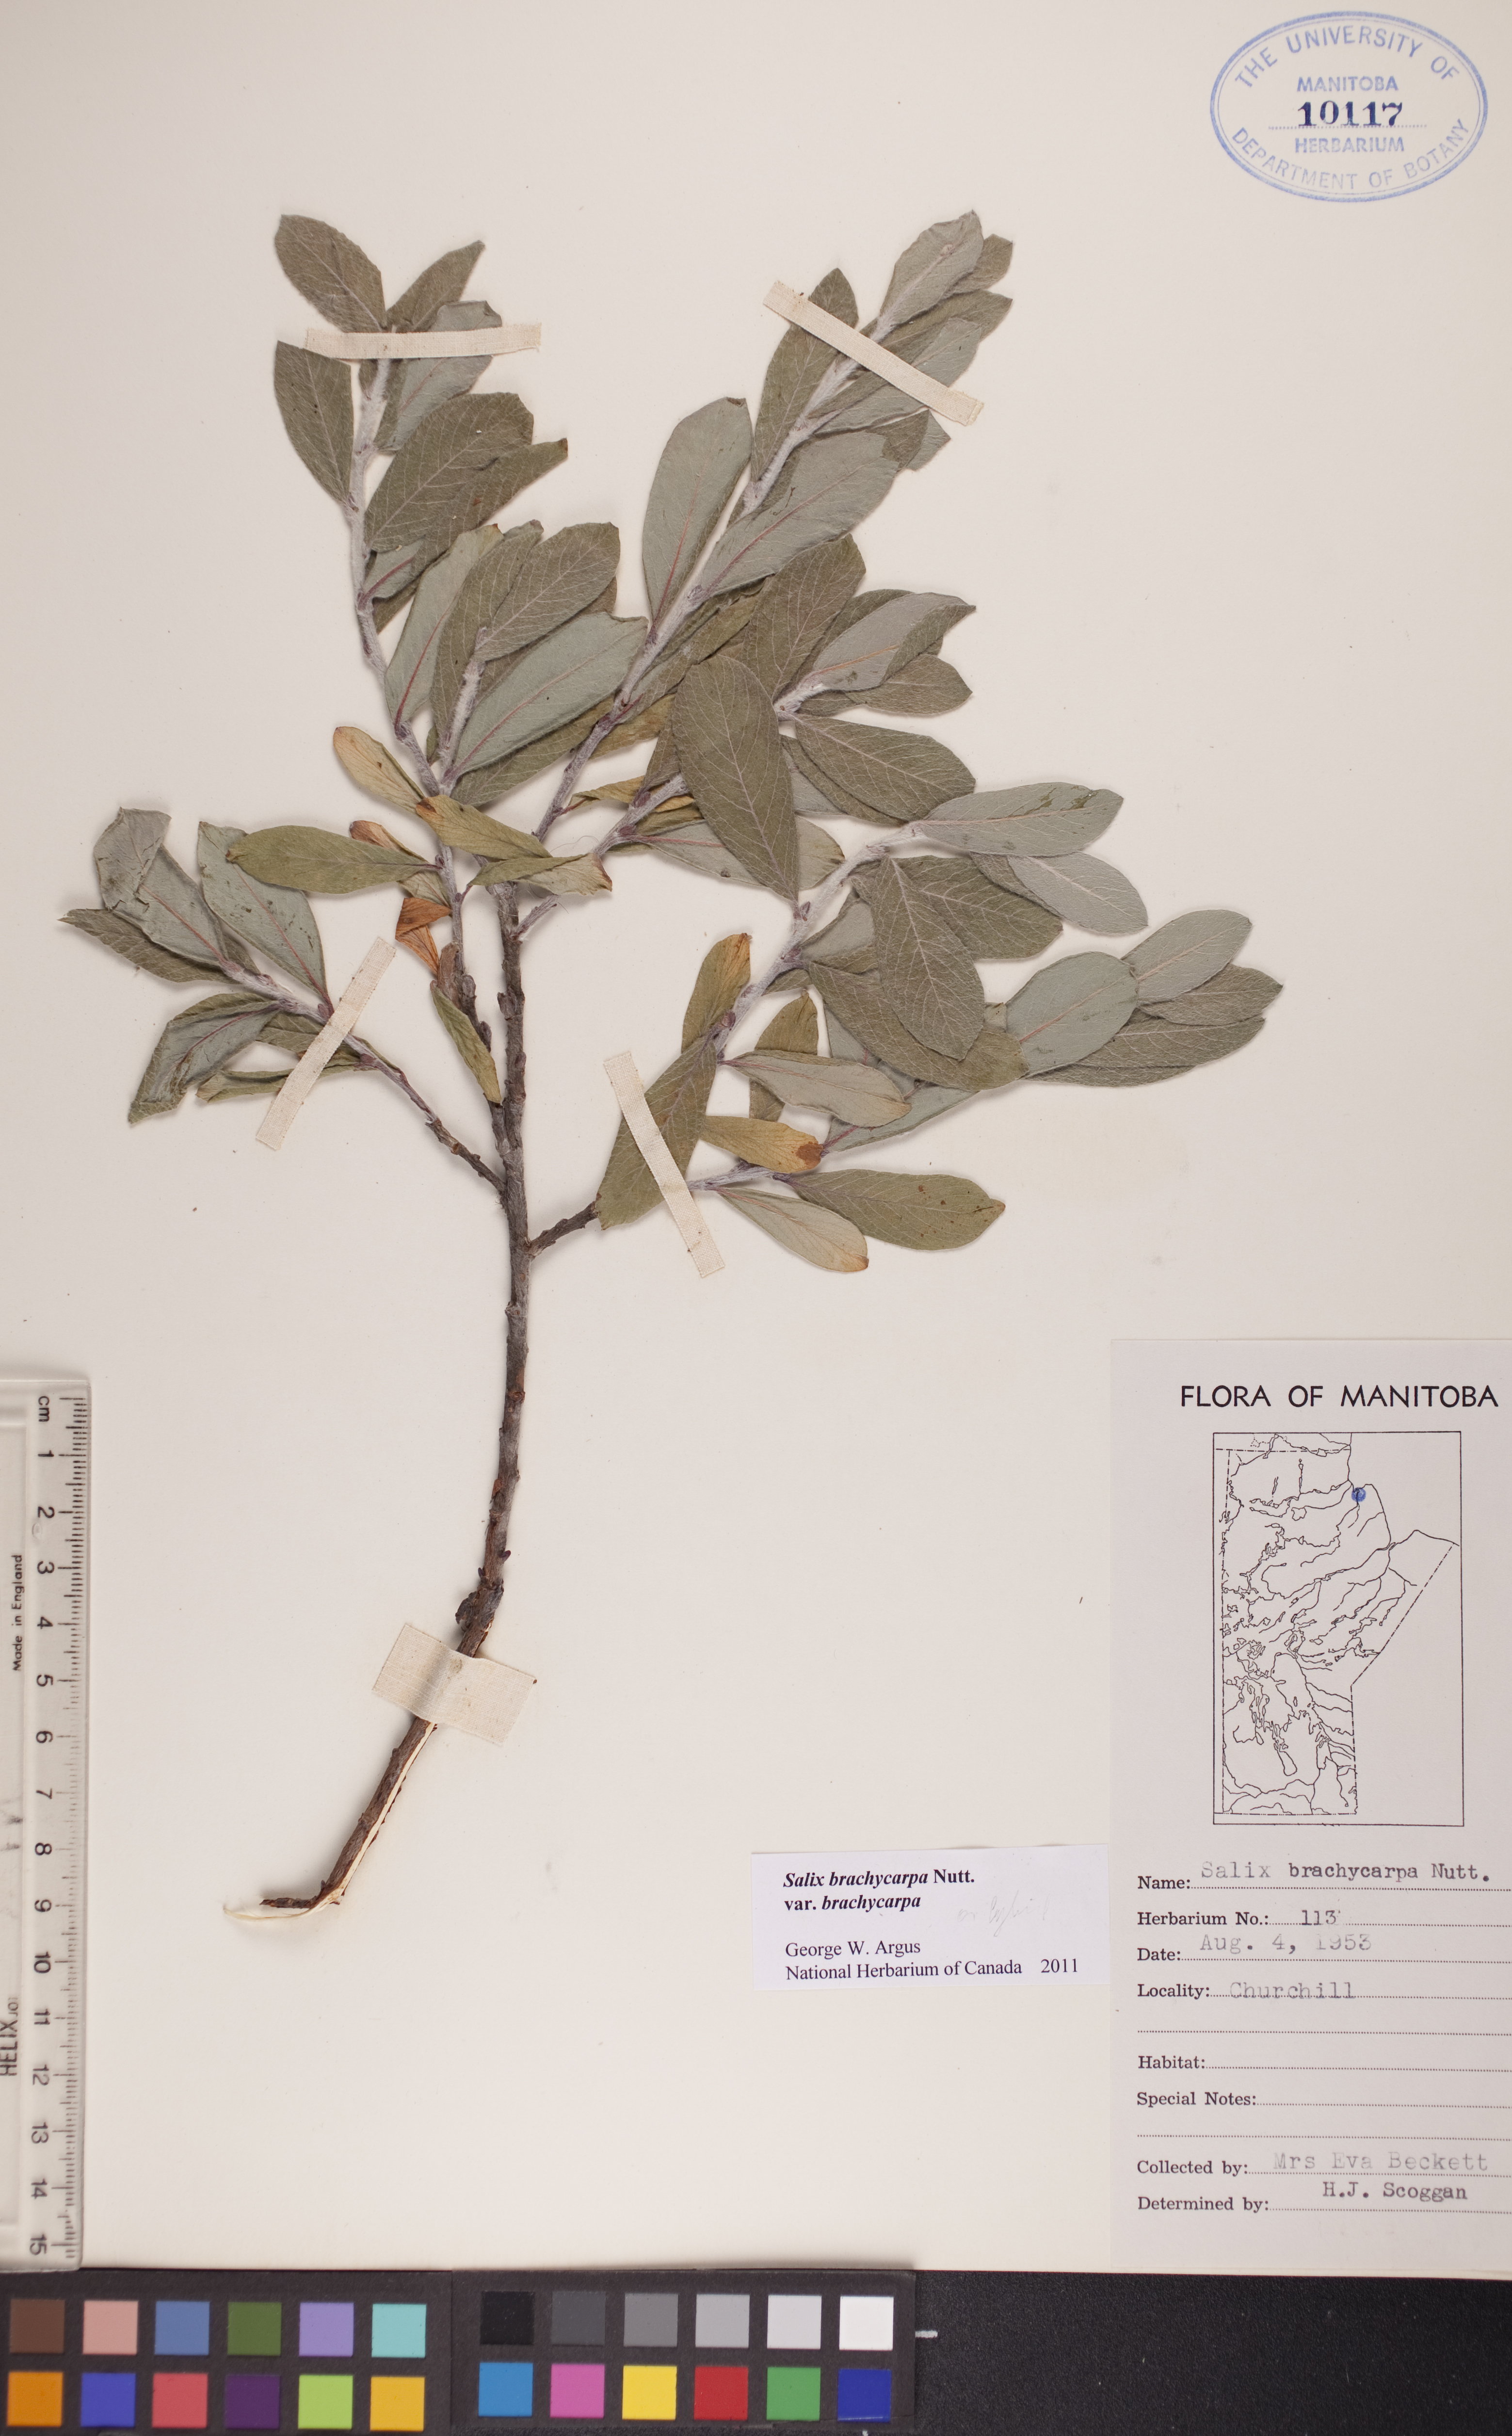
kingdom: Plantae
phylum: Tracheophyta
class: Magnoliopsida
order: Malpighiales
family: Salicaceae
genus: Salix
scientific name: Salix brachycarpa
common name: Barren-ground willow
